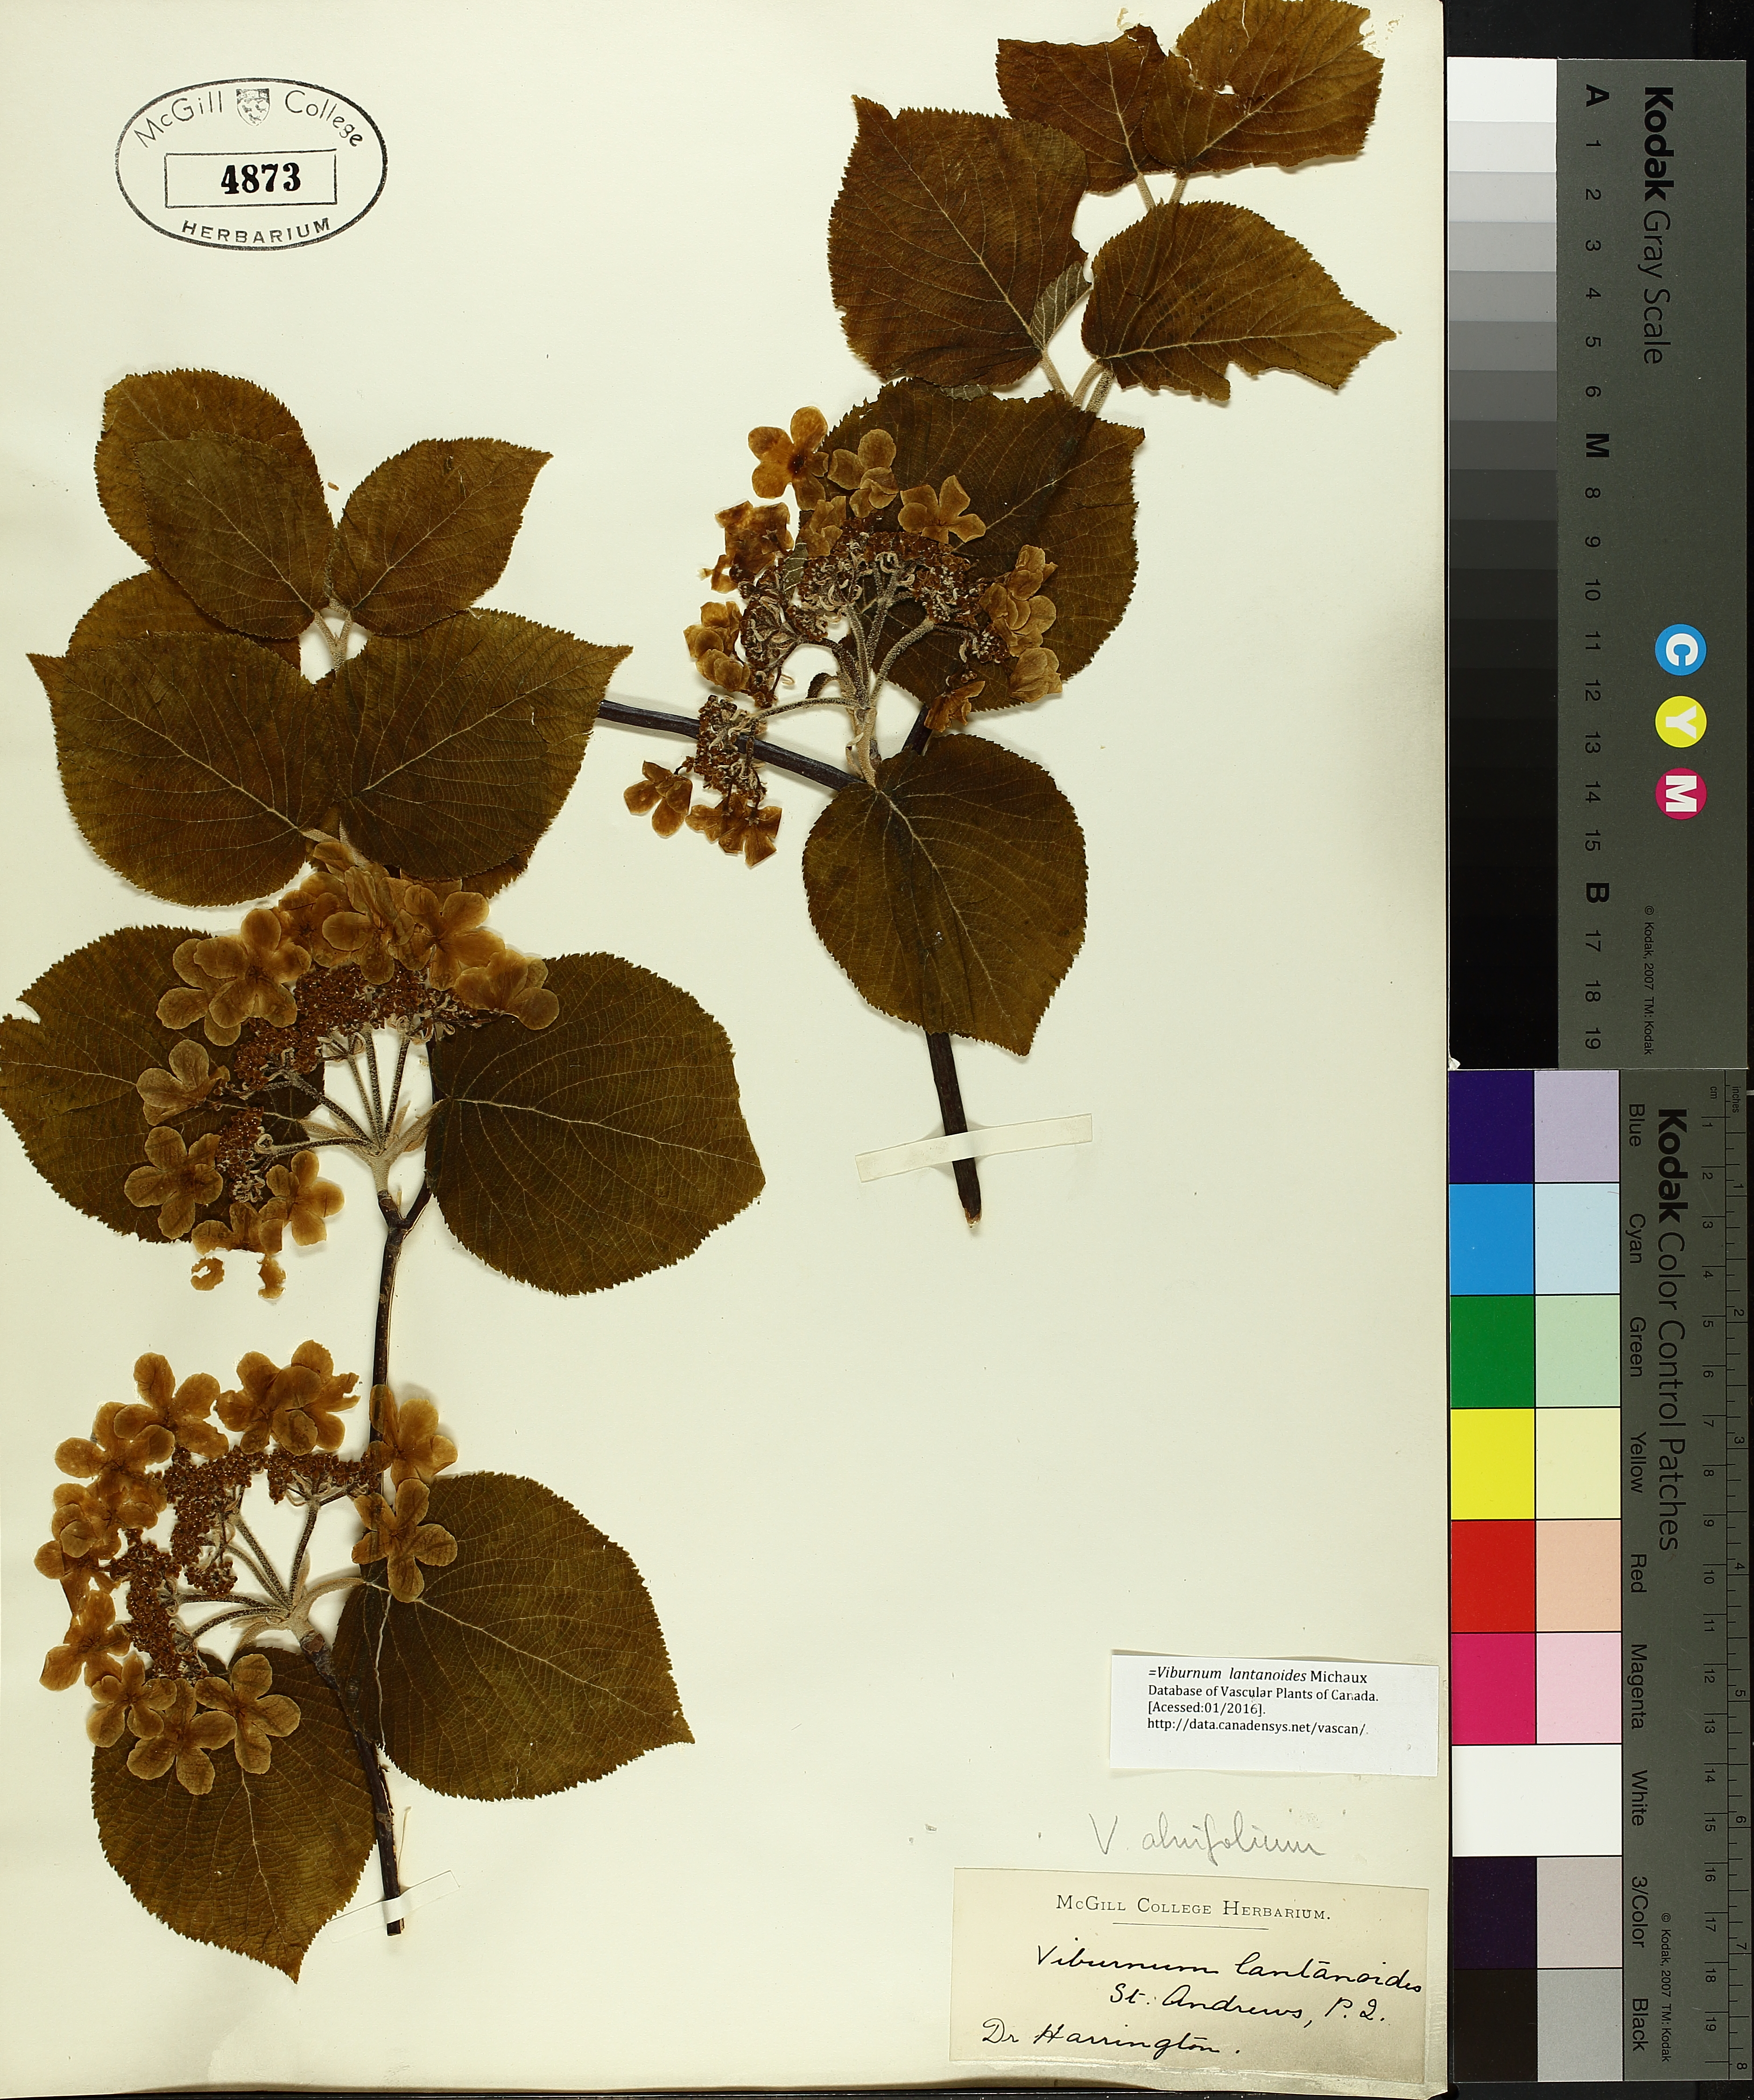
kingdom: Plantae
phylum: Tracheophyta
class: Magnoliopsida
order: Lamiales
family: Lamiaceae
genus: Hedeoma
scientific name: Hedeoma pulegioides
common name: American false pennyroyal
